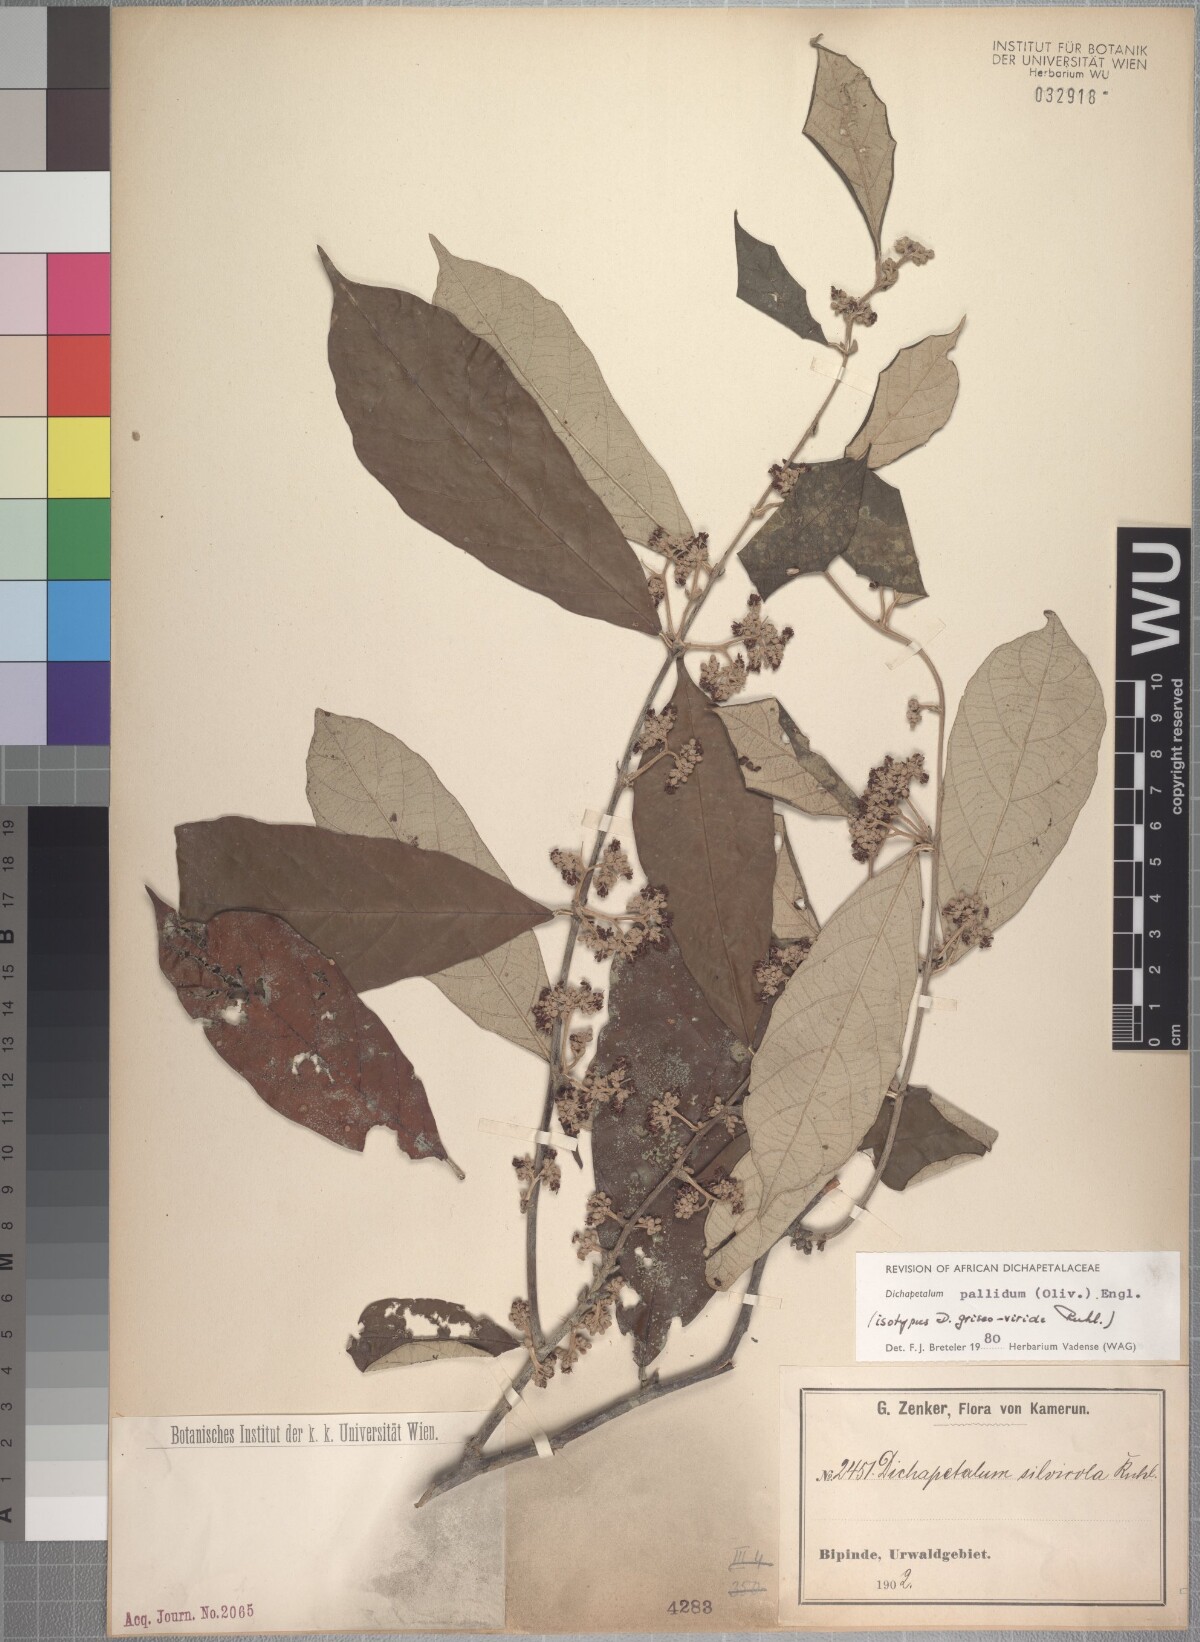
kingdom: Plantae
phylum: Tracheophyta
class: Magnoliopsida
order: Malpighiales
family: Dichapetalaceae
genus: Dichapetalum
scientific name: Dichapetalum pallidum
